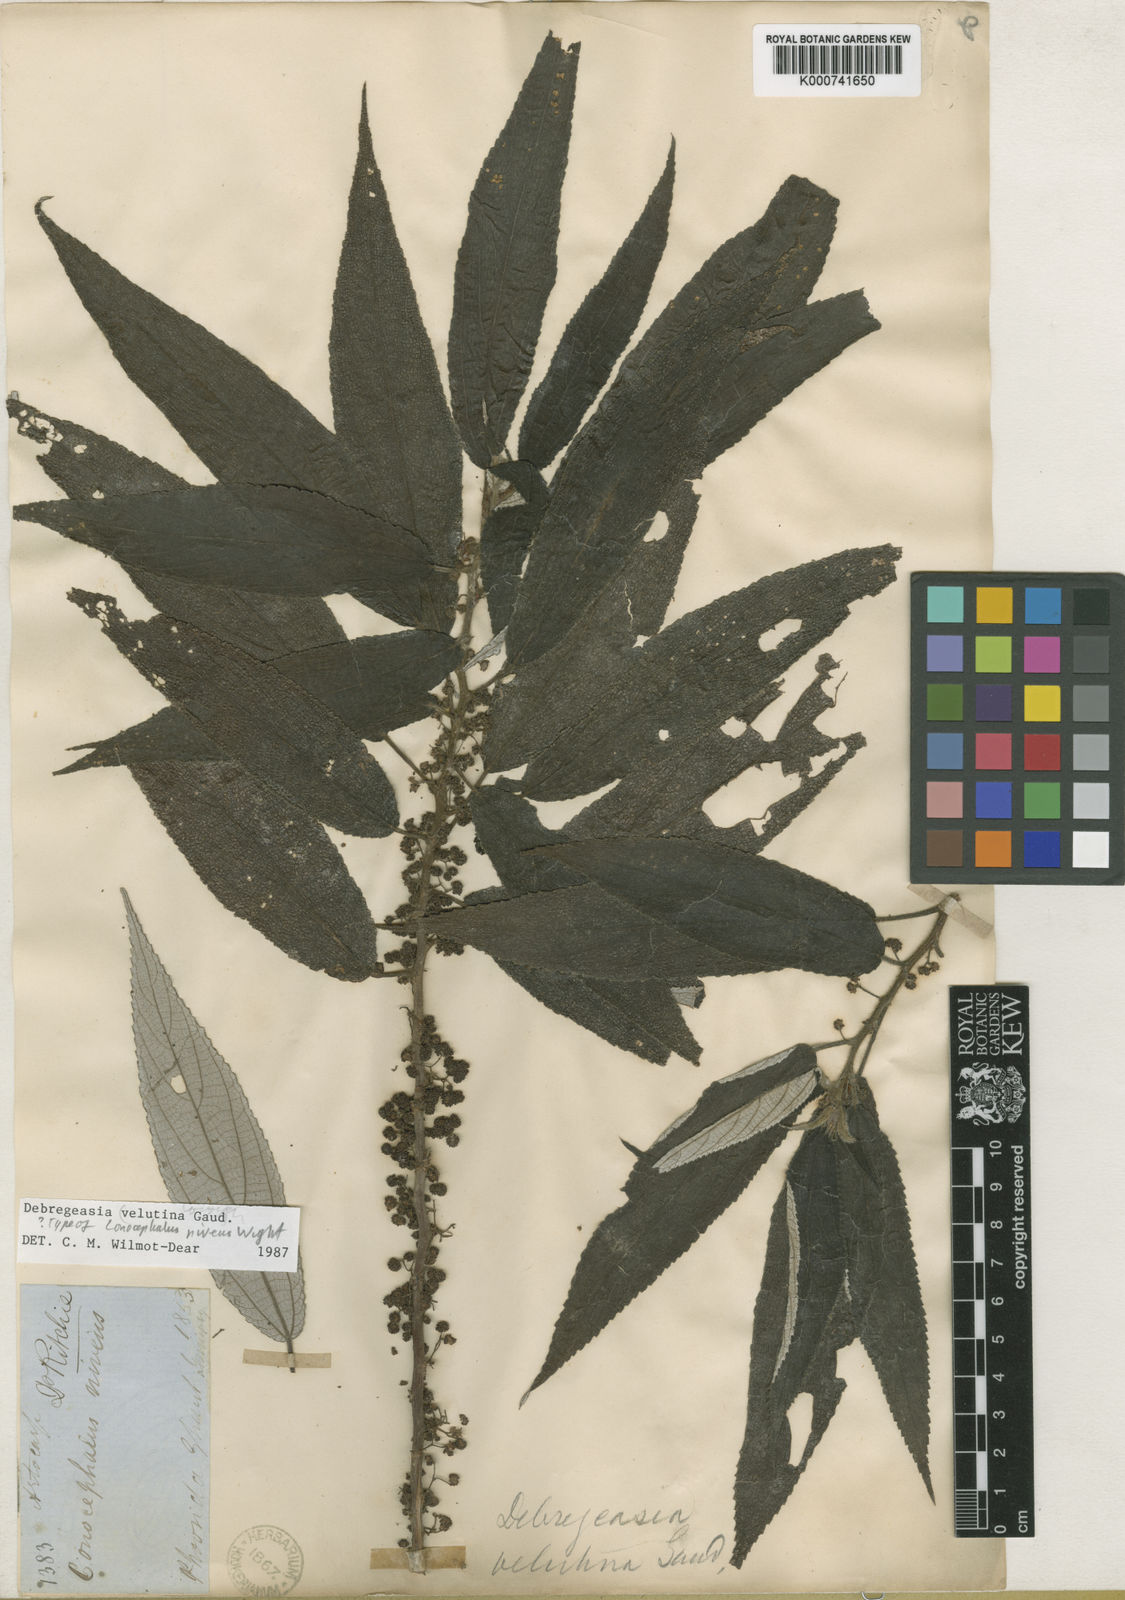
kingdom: Plantae
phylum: Tracheophyta
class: Magnoliopsida
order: Rosales
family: Urticaceae
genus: Debregeasia
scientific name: Debregeasia longifolia
